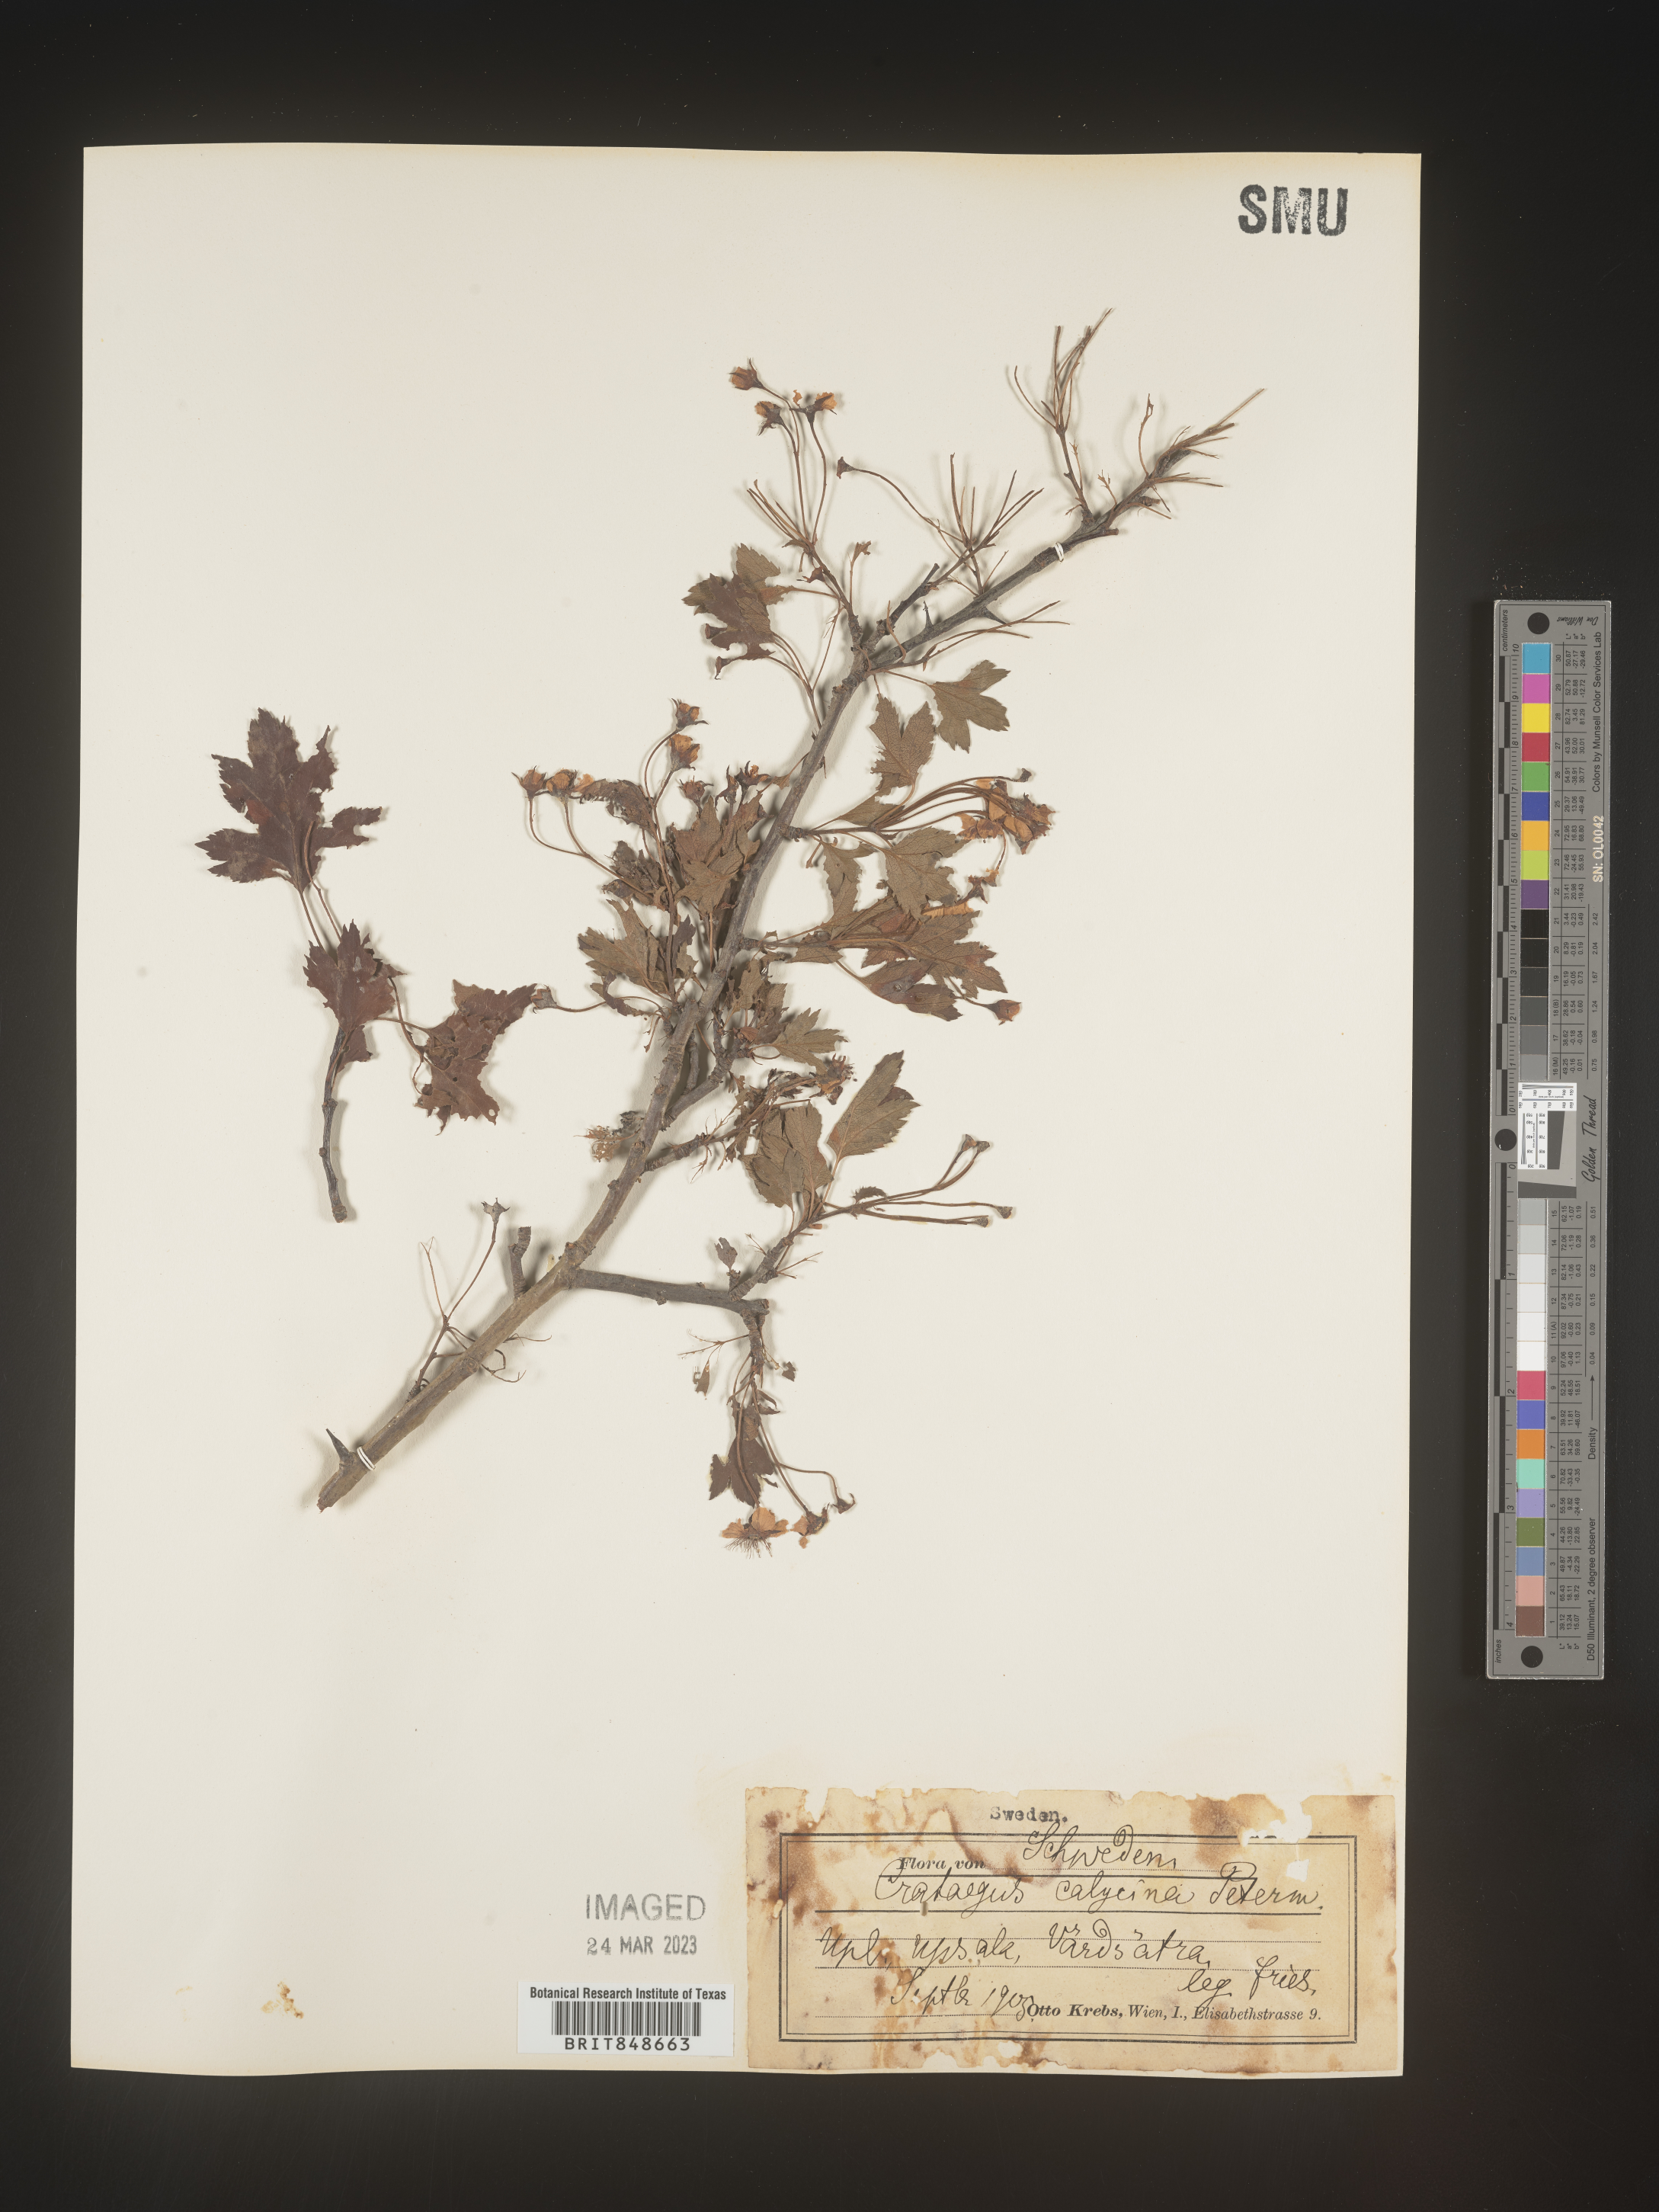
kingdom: Plantae
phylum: Tracheophyta
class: Magnoliopsida
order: Rosales
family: Rosaceae
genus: Crataegus
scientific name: Crataegus
